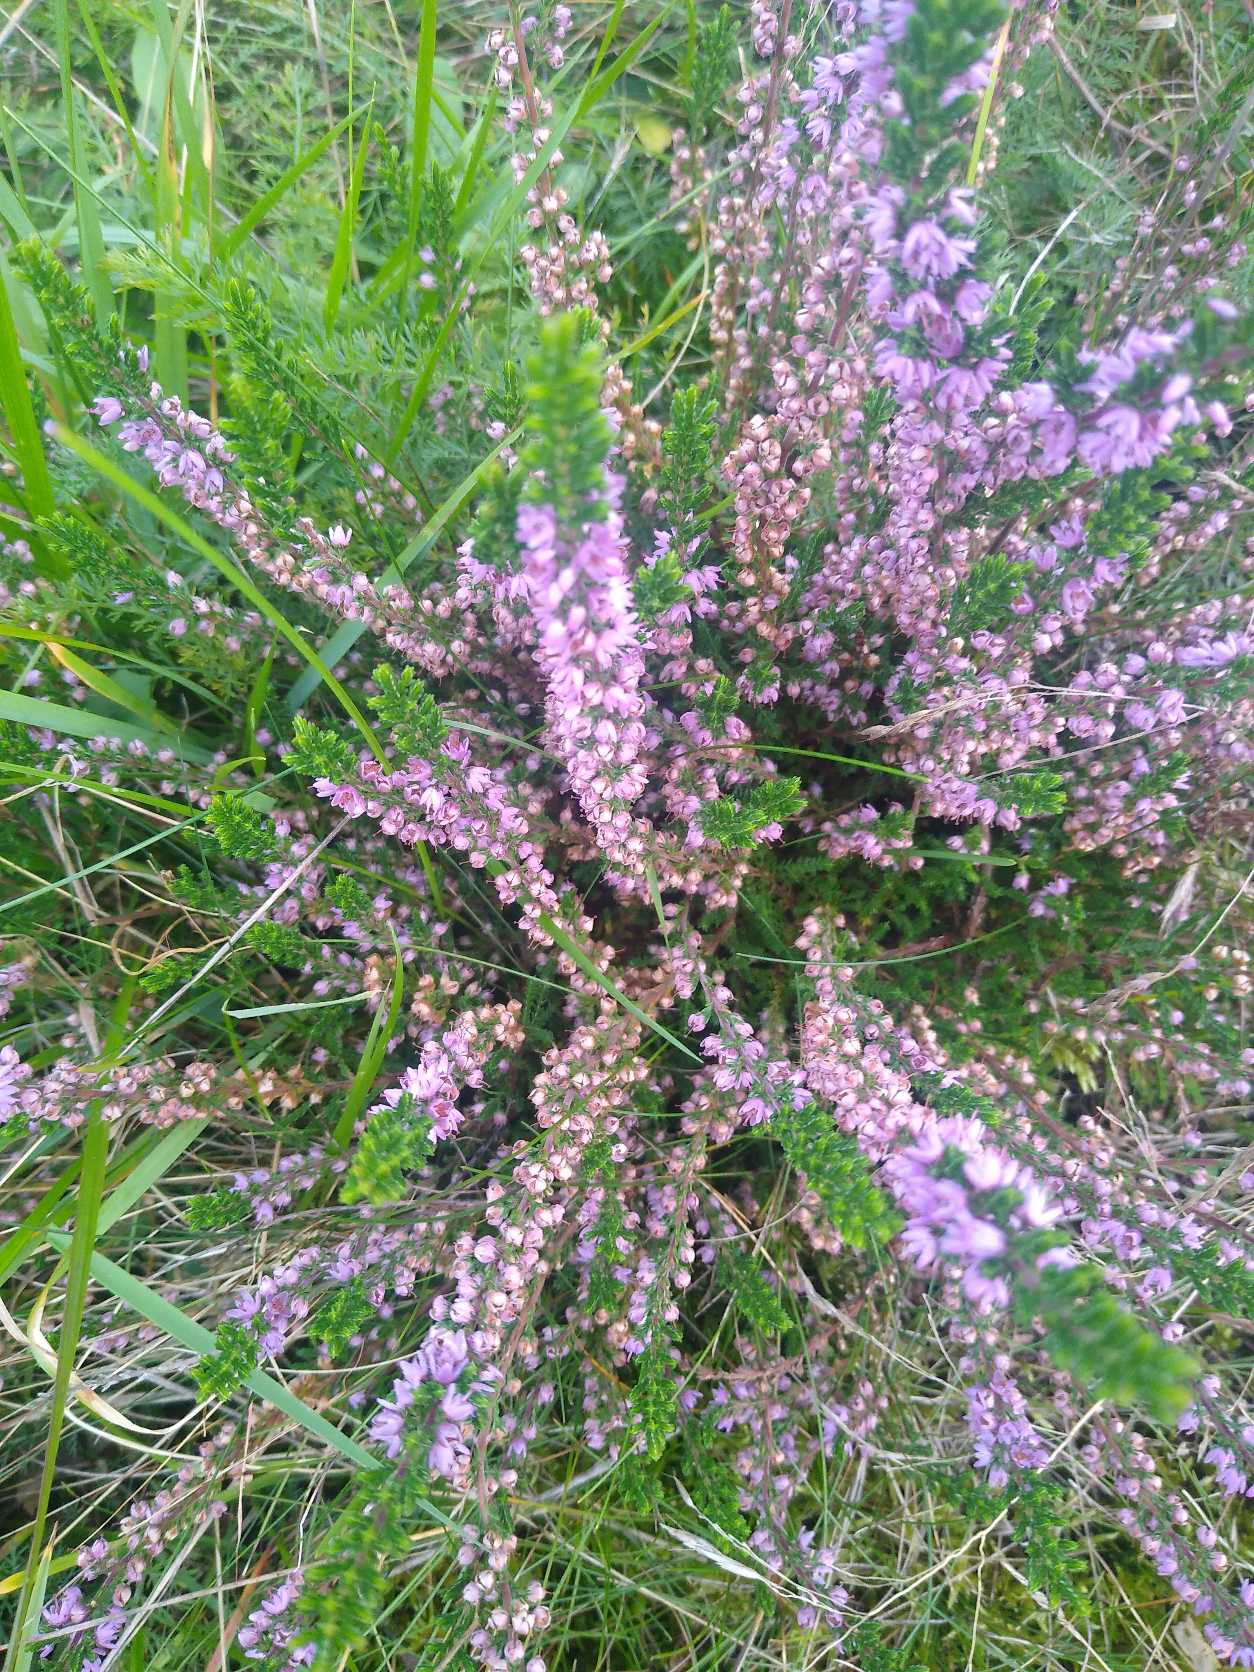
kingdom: Plantae
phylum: Tracheophyta
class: Magnoliopsida
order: Ericales
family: Ericaceae
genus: Calluna
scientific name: Calluna vulgaris
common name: Hedelyng
